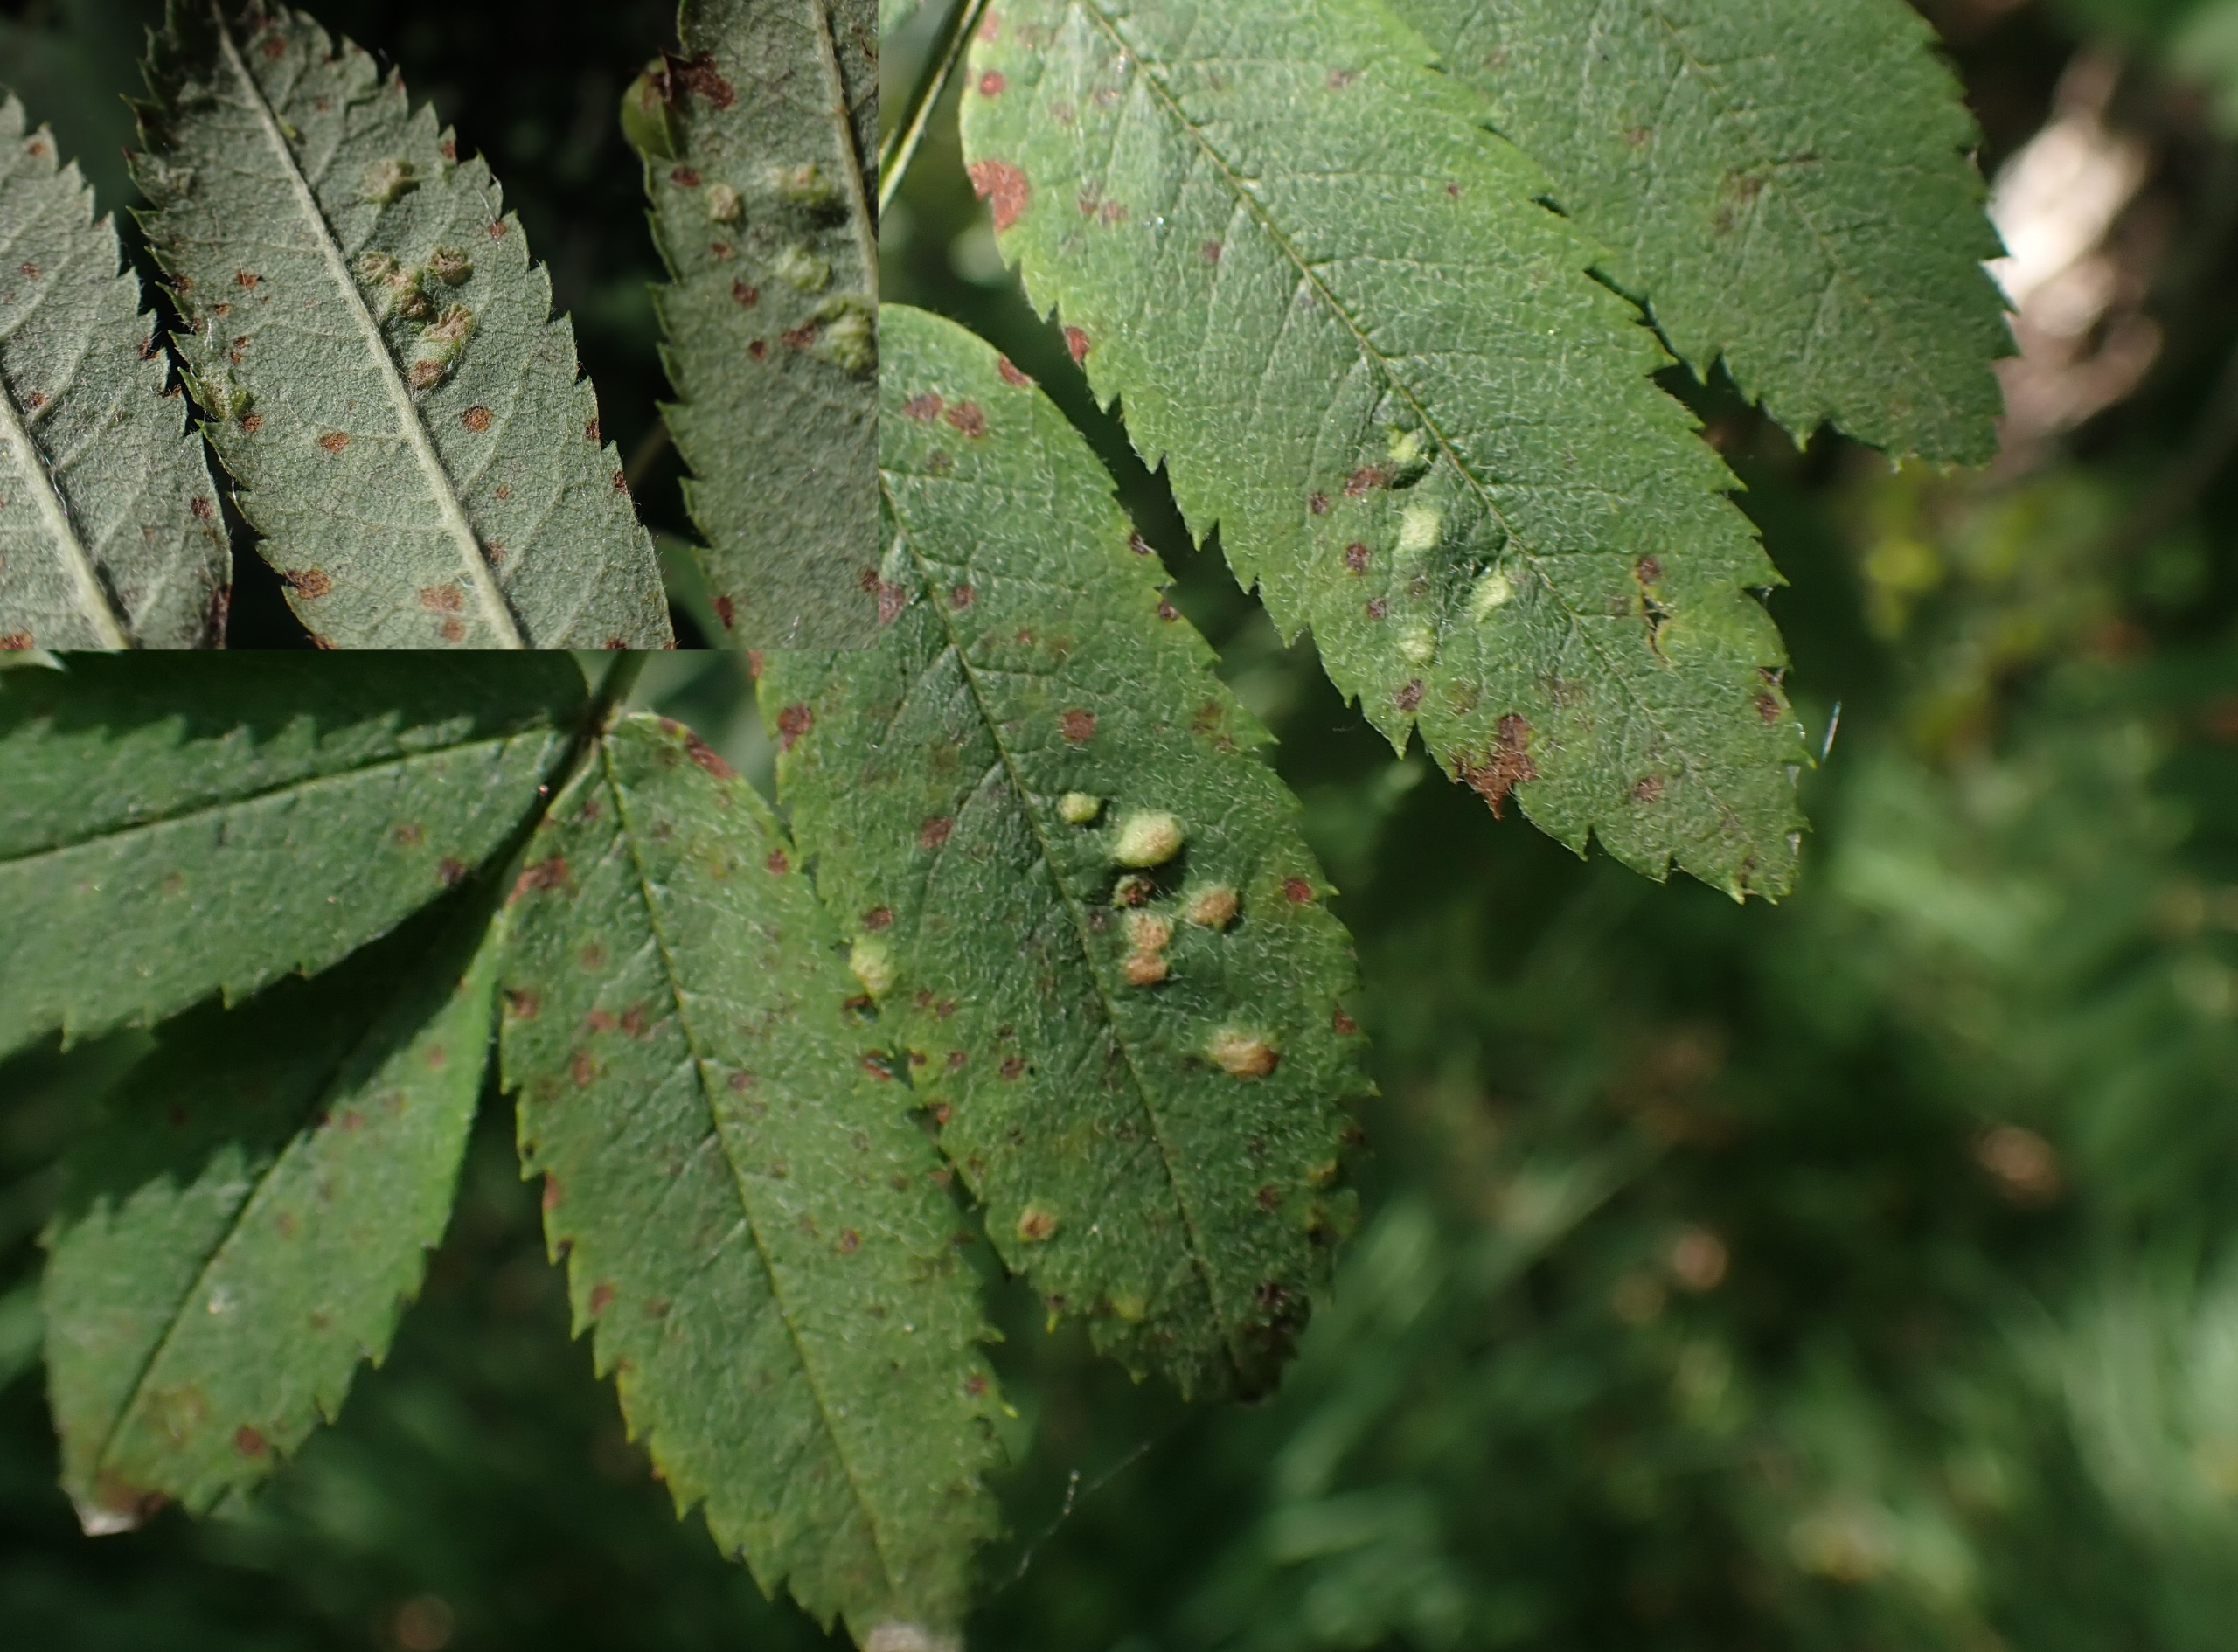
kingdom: Animalia
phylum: Arthropoda
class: Arachnida
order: Trombidiformes
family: Eriophyidae
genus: Eriophyes
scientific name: Eriophyes pyri
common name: Pærebladgalmide
